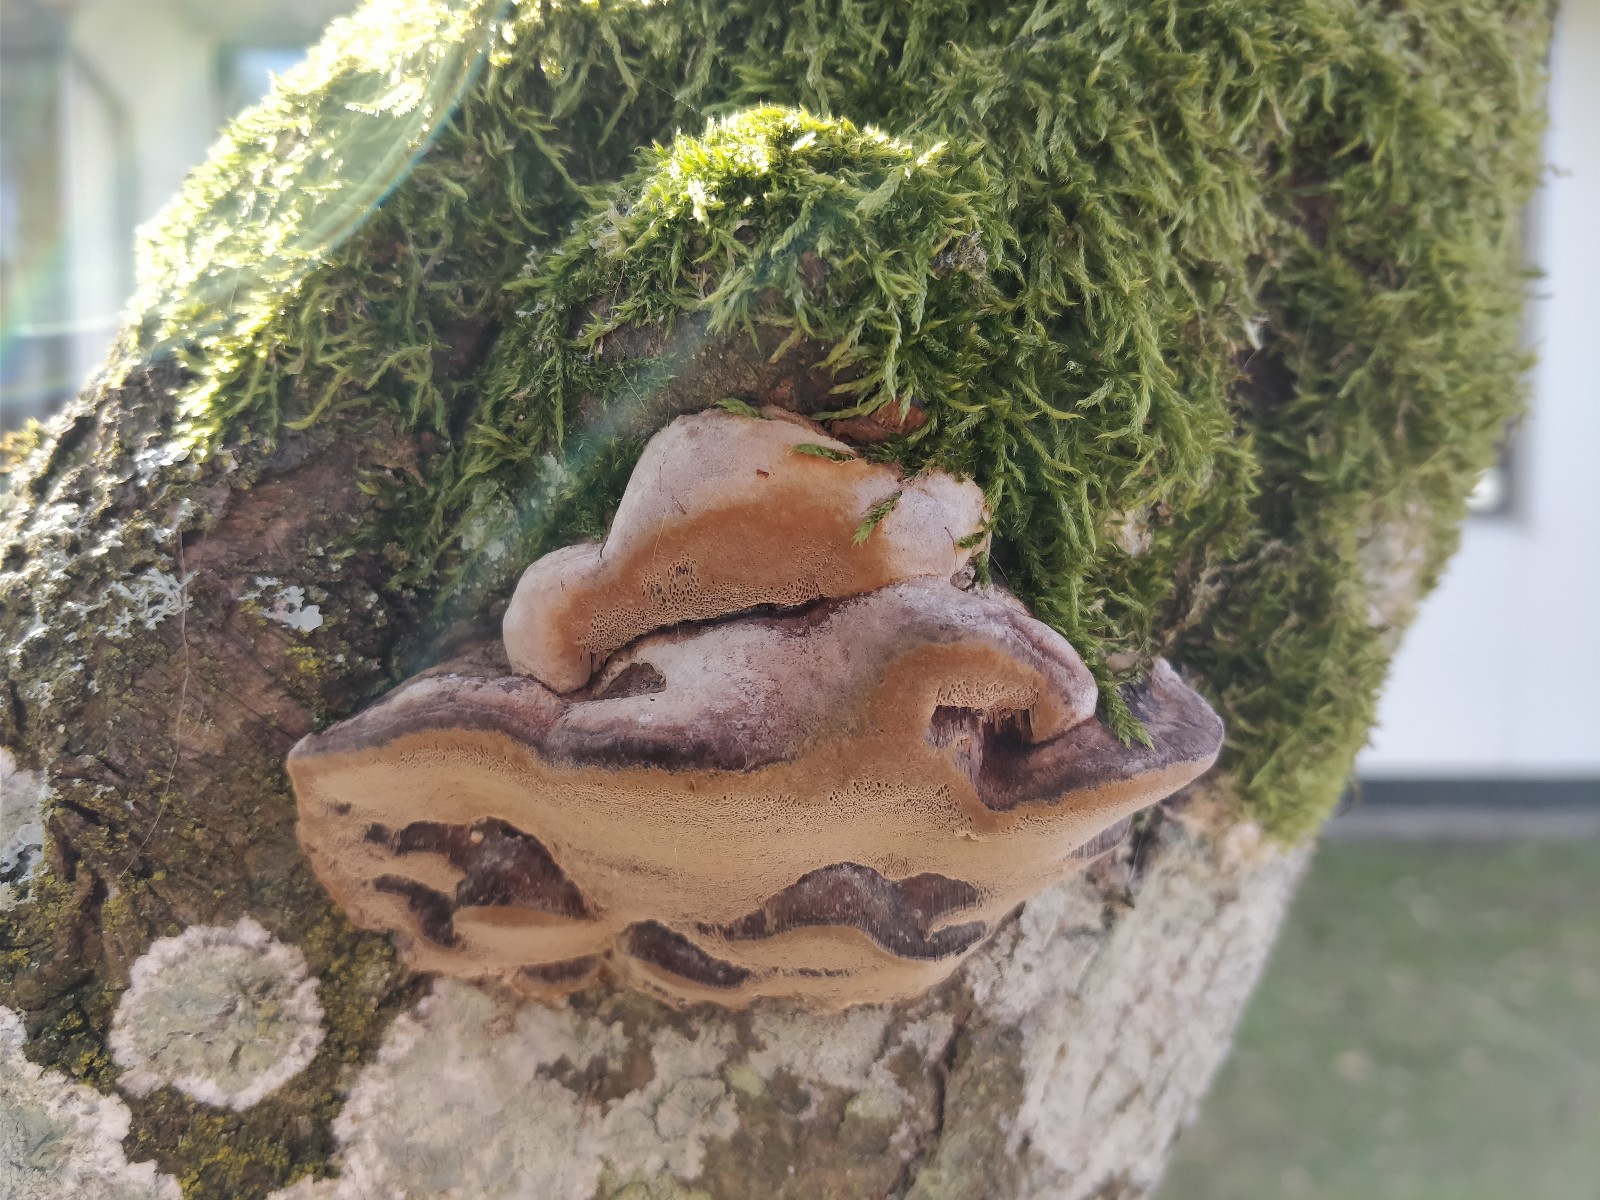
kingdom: Fungi
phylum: Basidiomycota
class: Agaricomycetes
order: Hymenochaetales
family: Hymenochaetaceae
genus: Phellinus
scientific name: Phellinus pomaceus
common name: blomme-ildporesvamp
